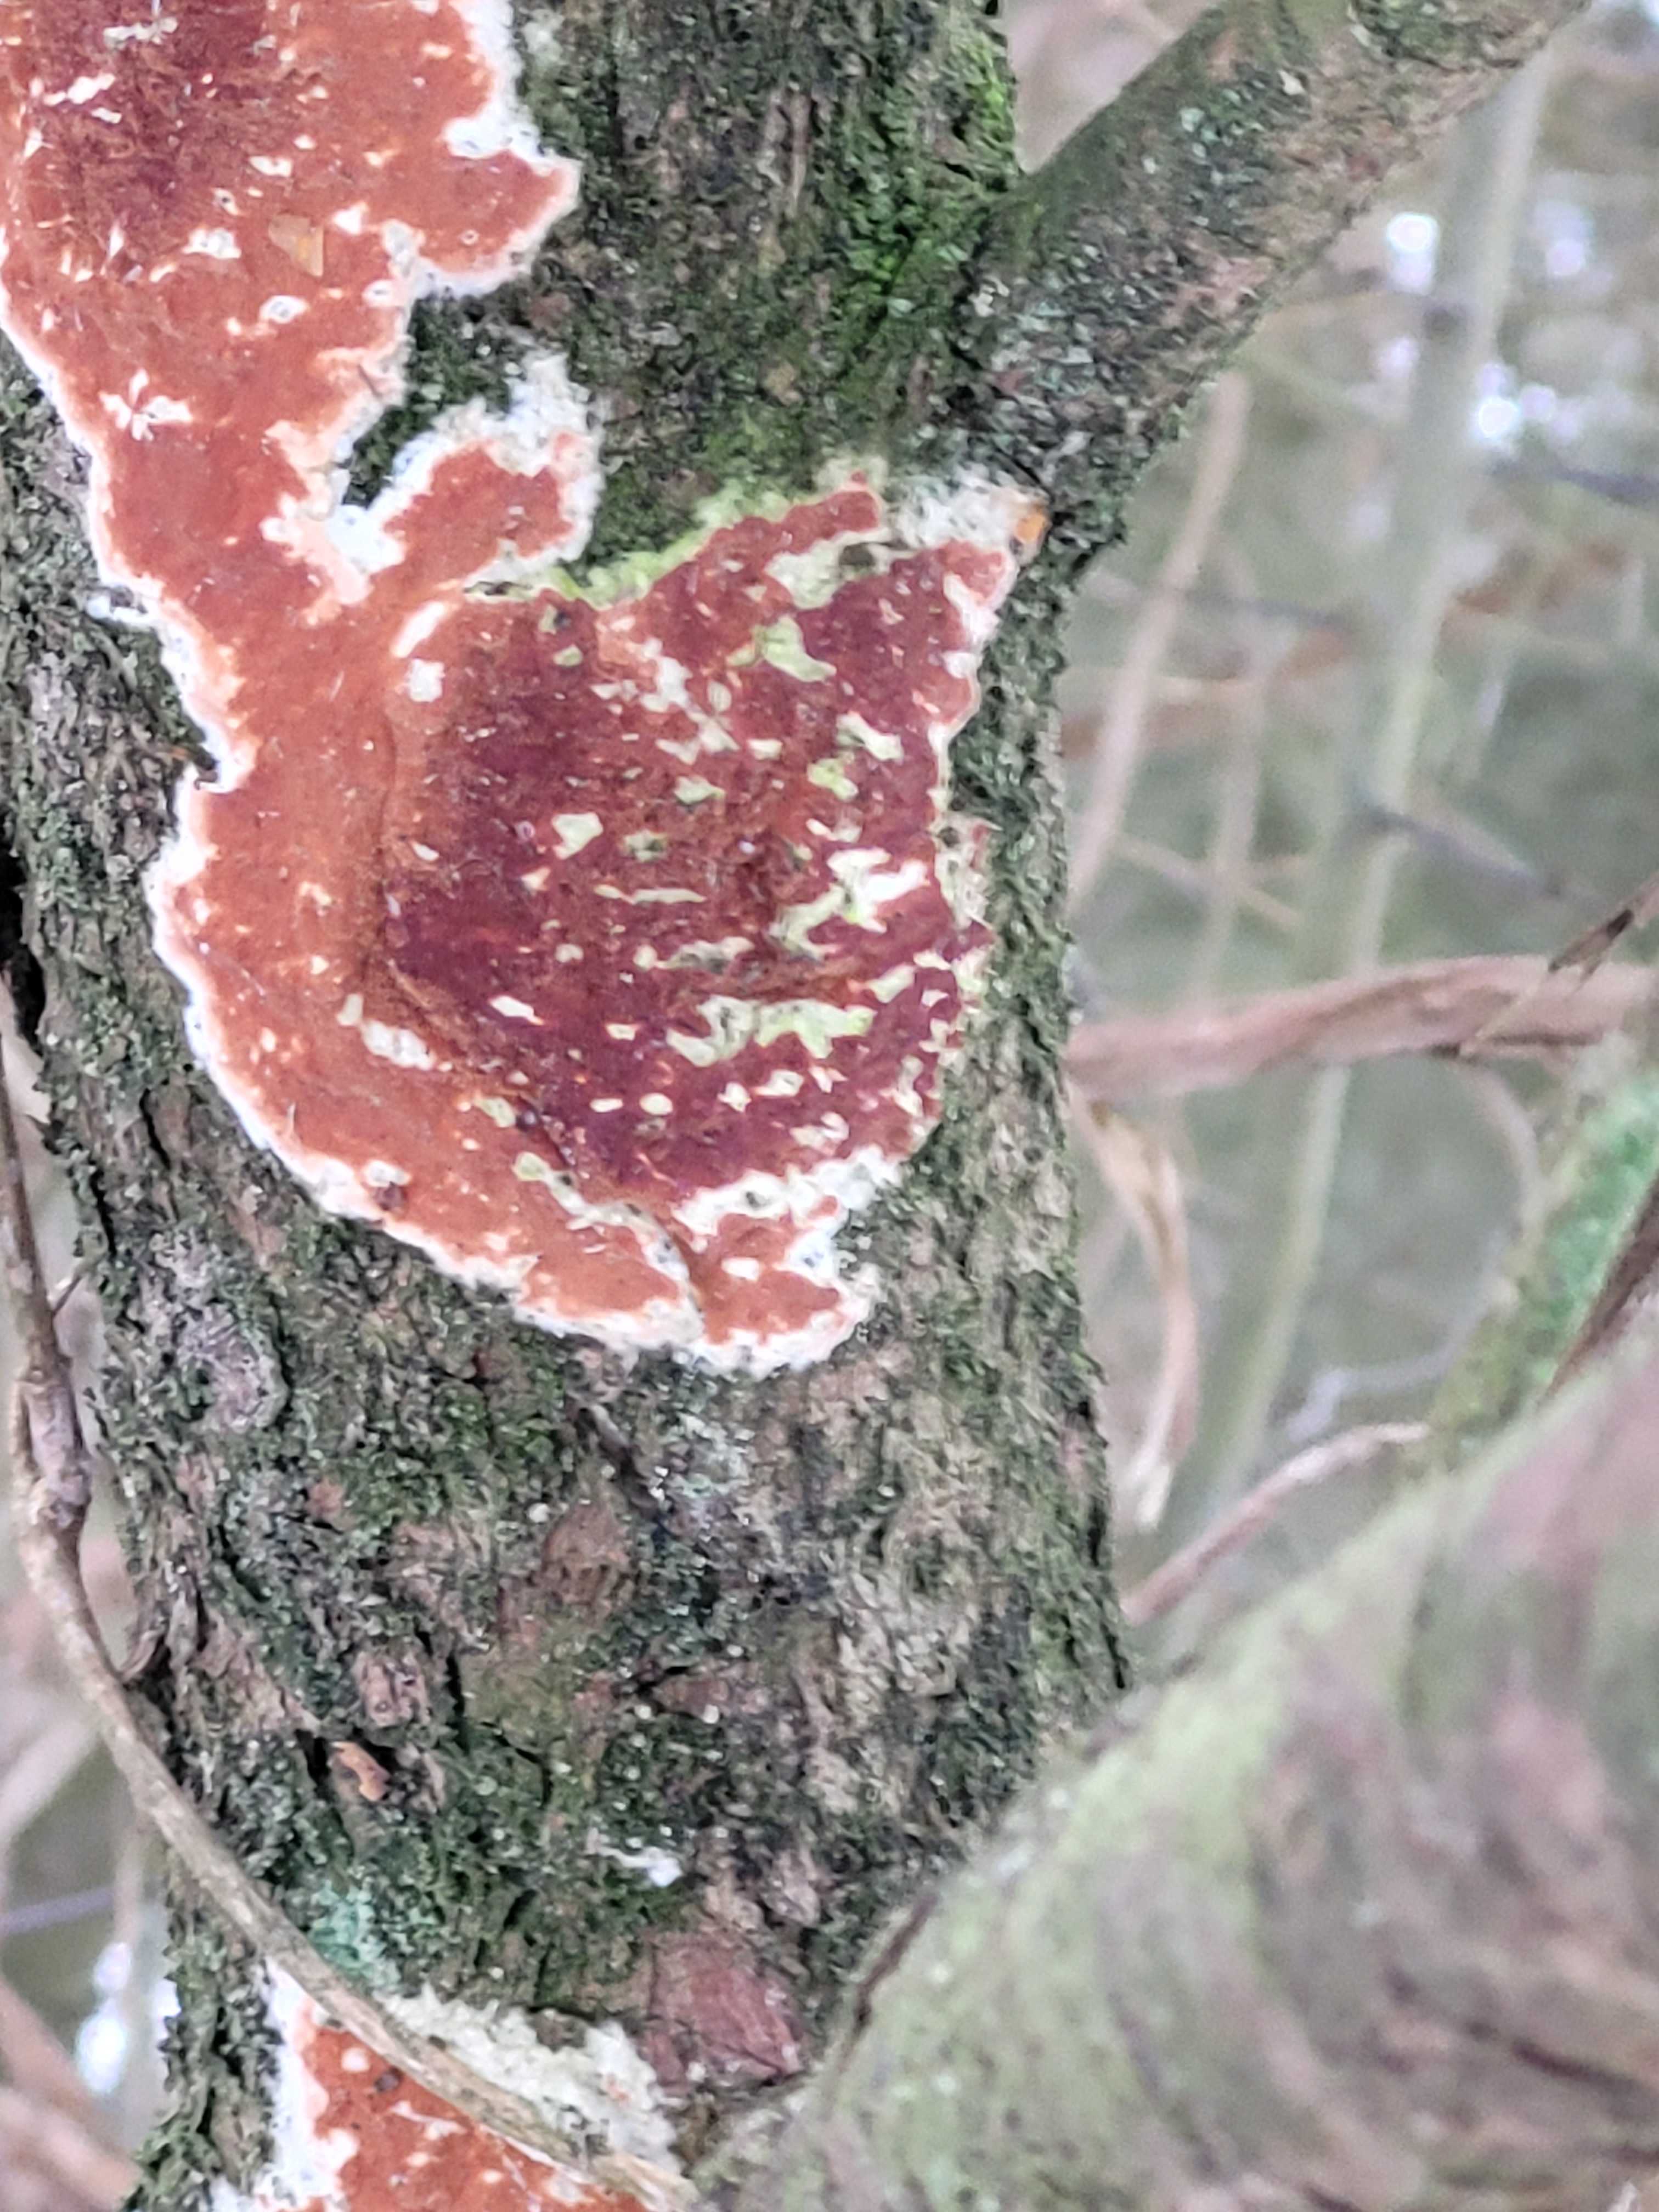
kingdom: Fungi
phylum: Basidiomycota
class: Agaricomycetes
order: Polyporales
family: Irpicaceae
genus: Meruliopsis
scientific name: Meruliopsis taxicola
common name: purpurbrun foldporesvamp
